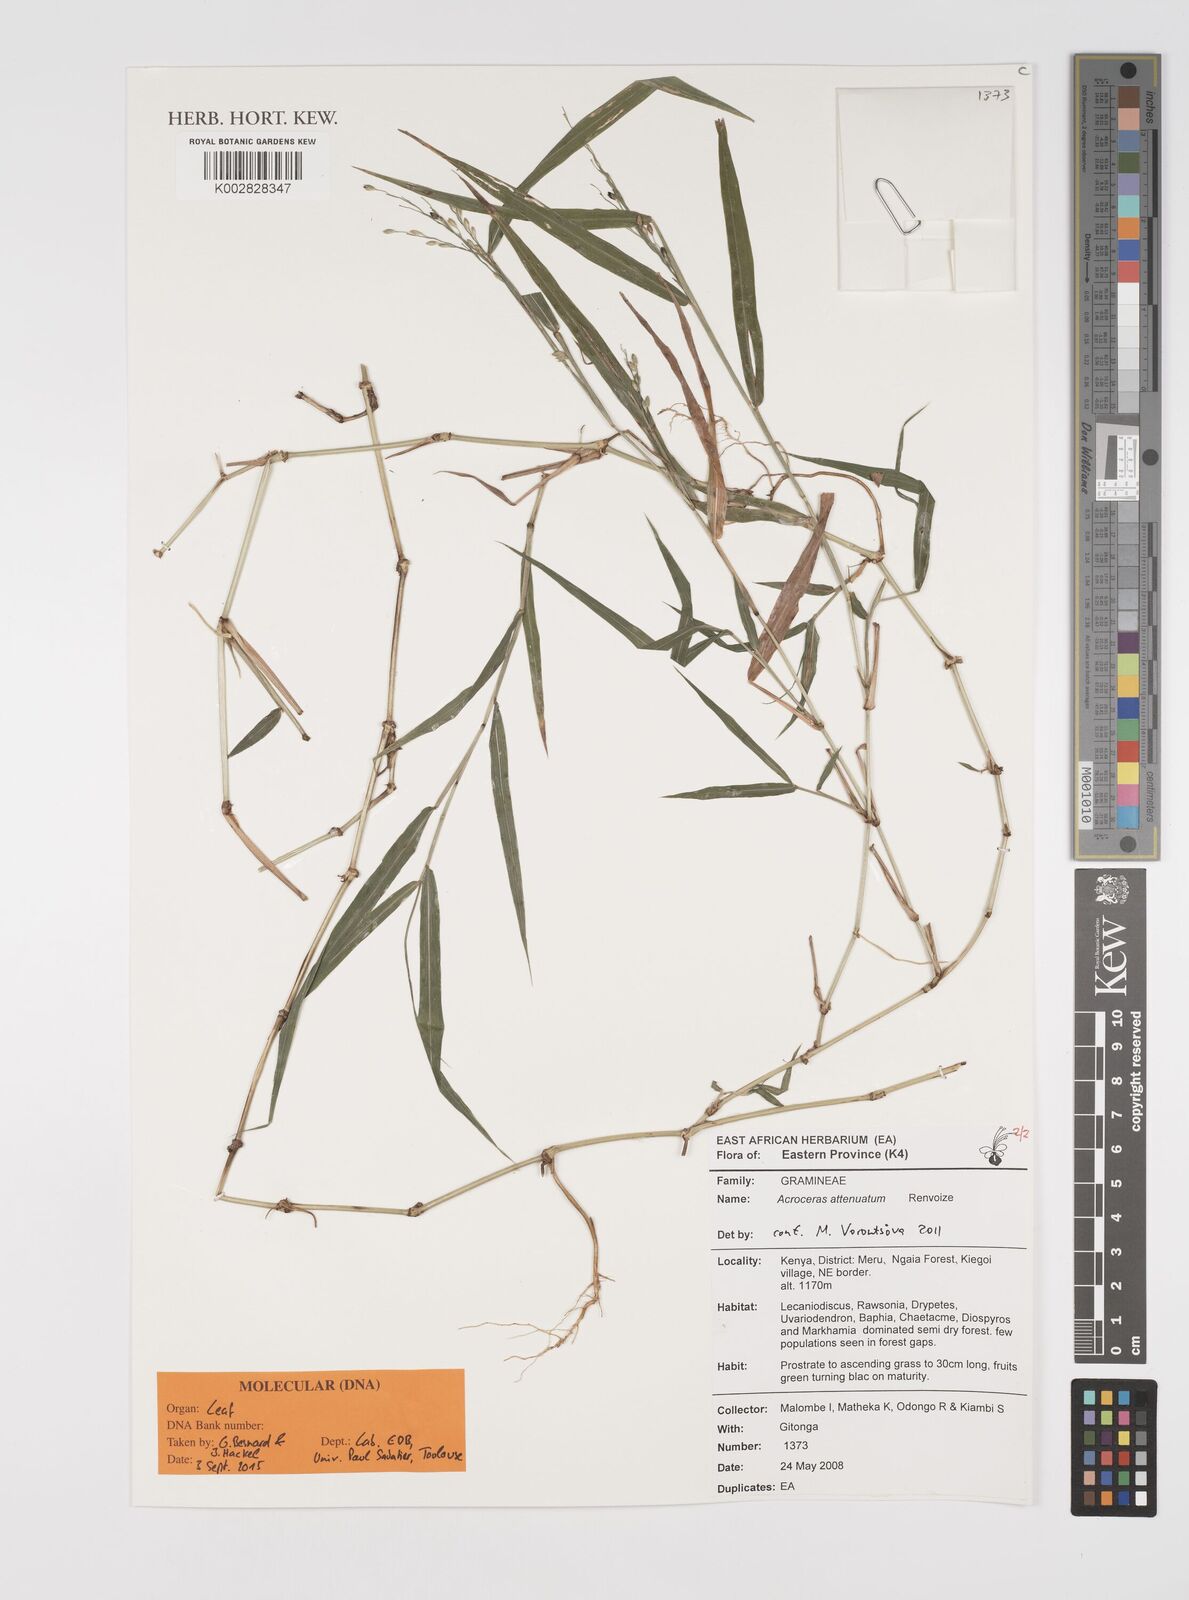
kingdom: Plantae
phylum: Tracheophyta
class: Liliopsida
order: Poales
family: Poaceae
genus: Acroceras
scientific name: Acroceras attenuatum
